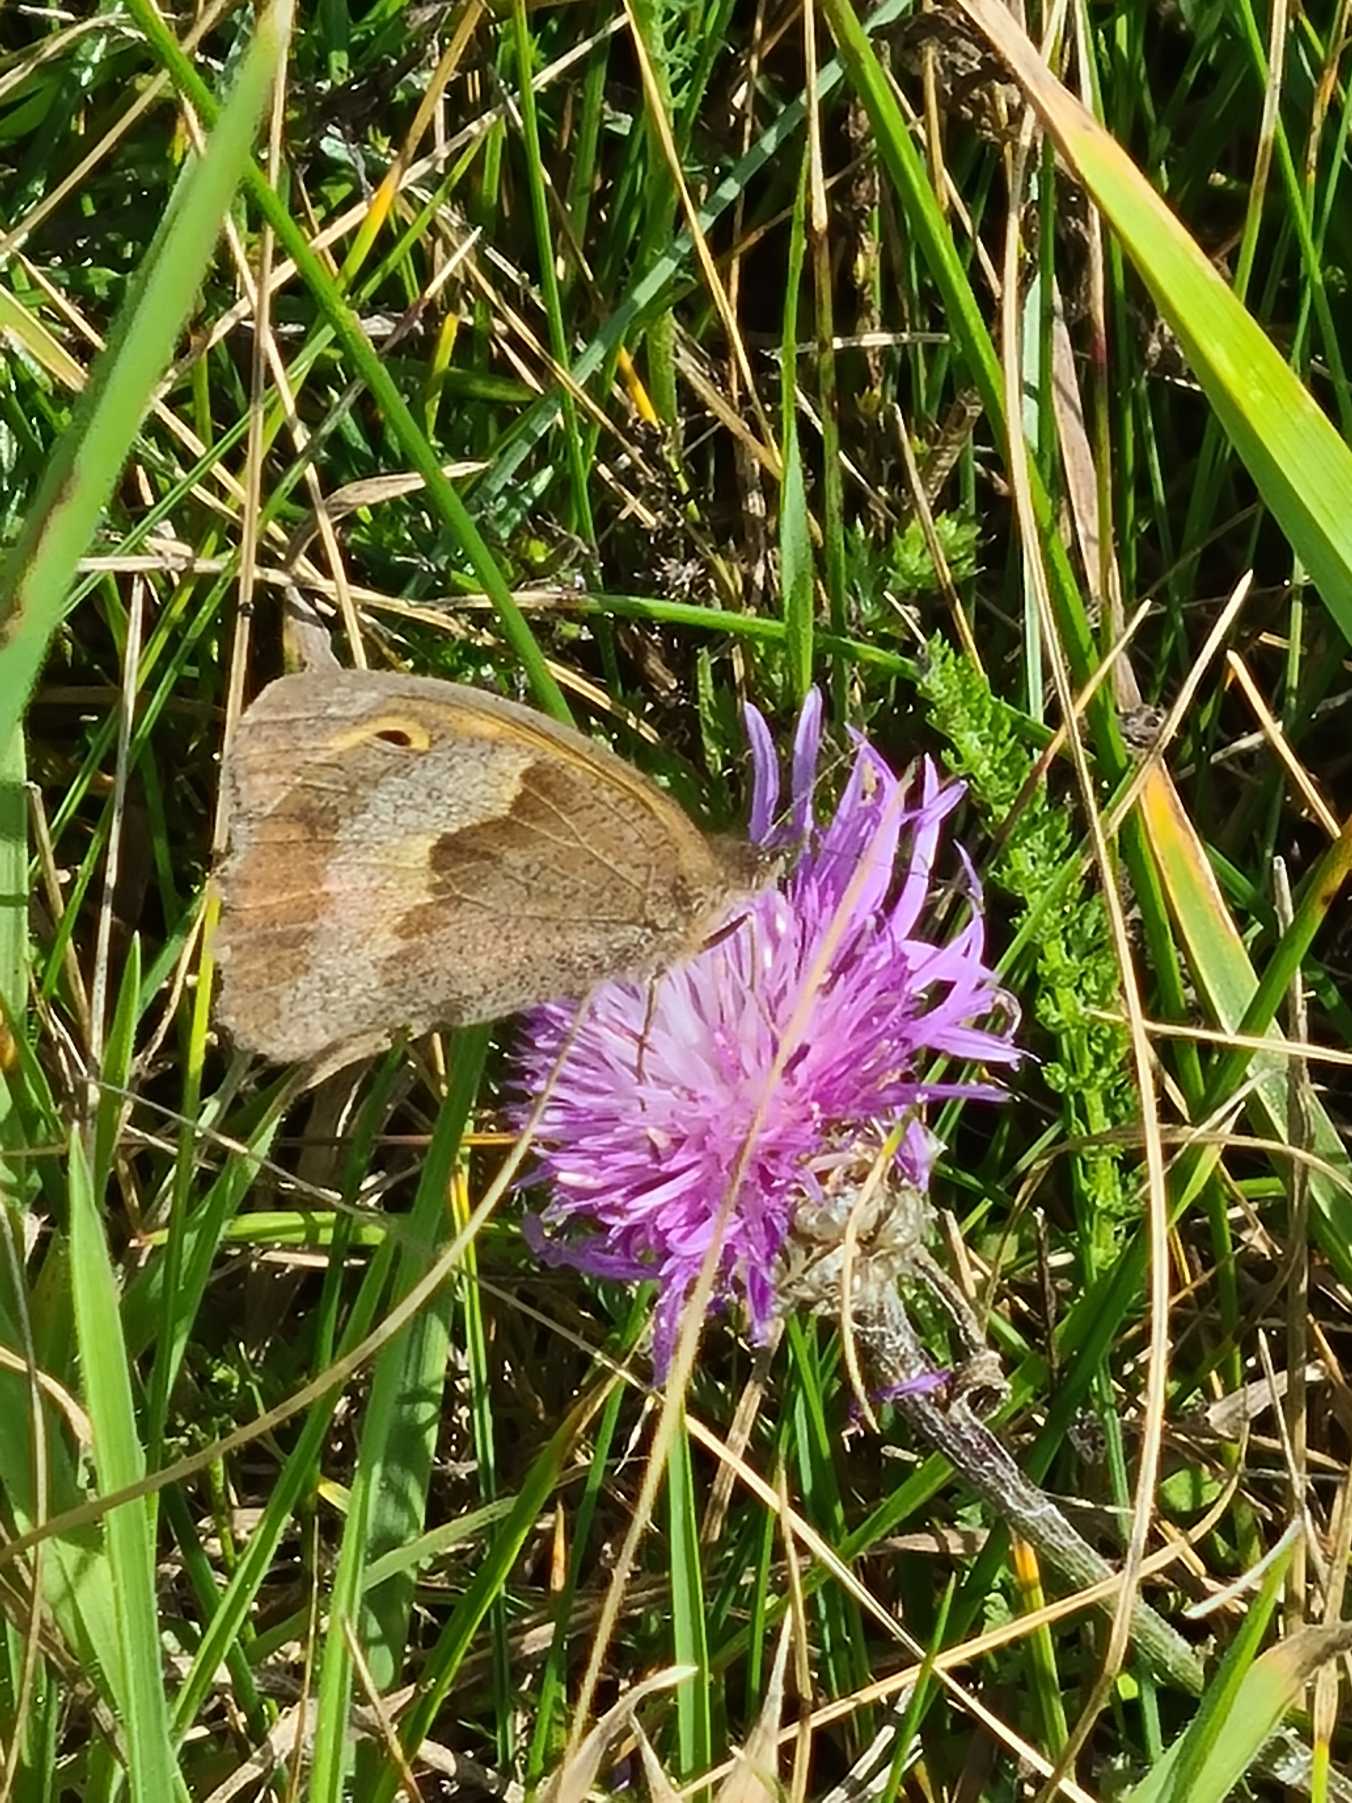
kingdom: Animalia
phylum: Arthropoda
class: Insecta
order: Lepidoptera
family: Nymphalidae
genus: Maniola
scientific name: Maniola jurtina
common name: Græsrandøje
